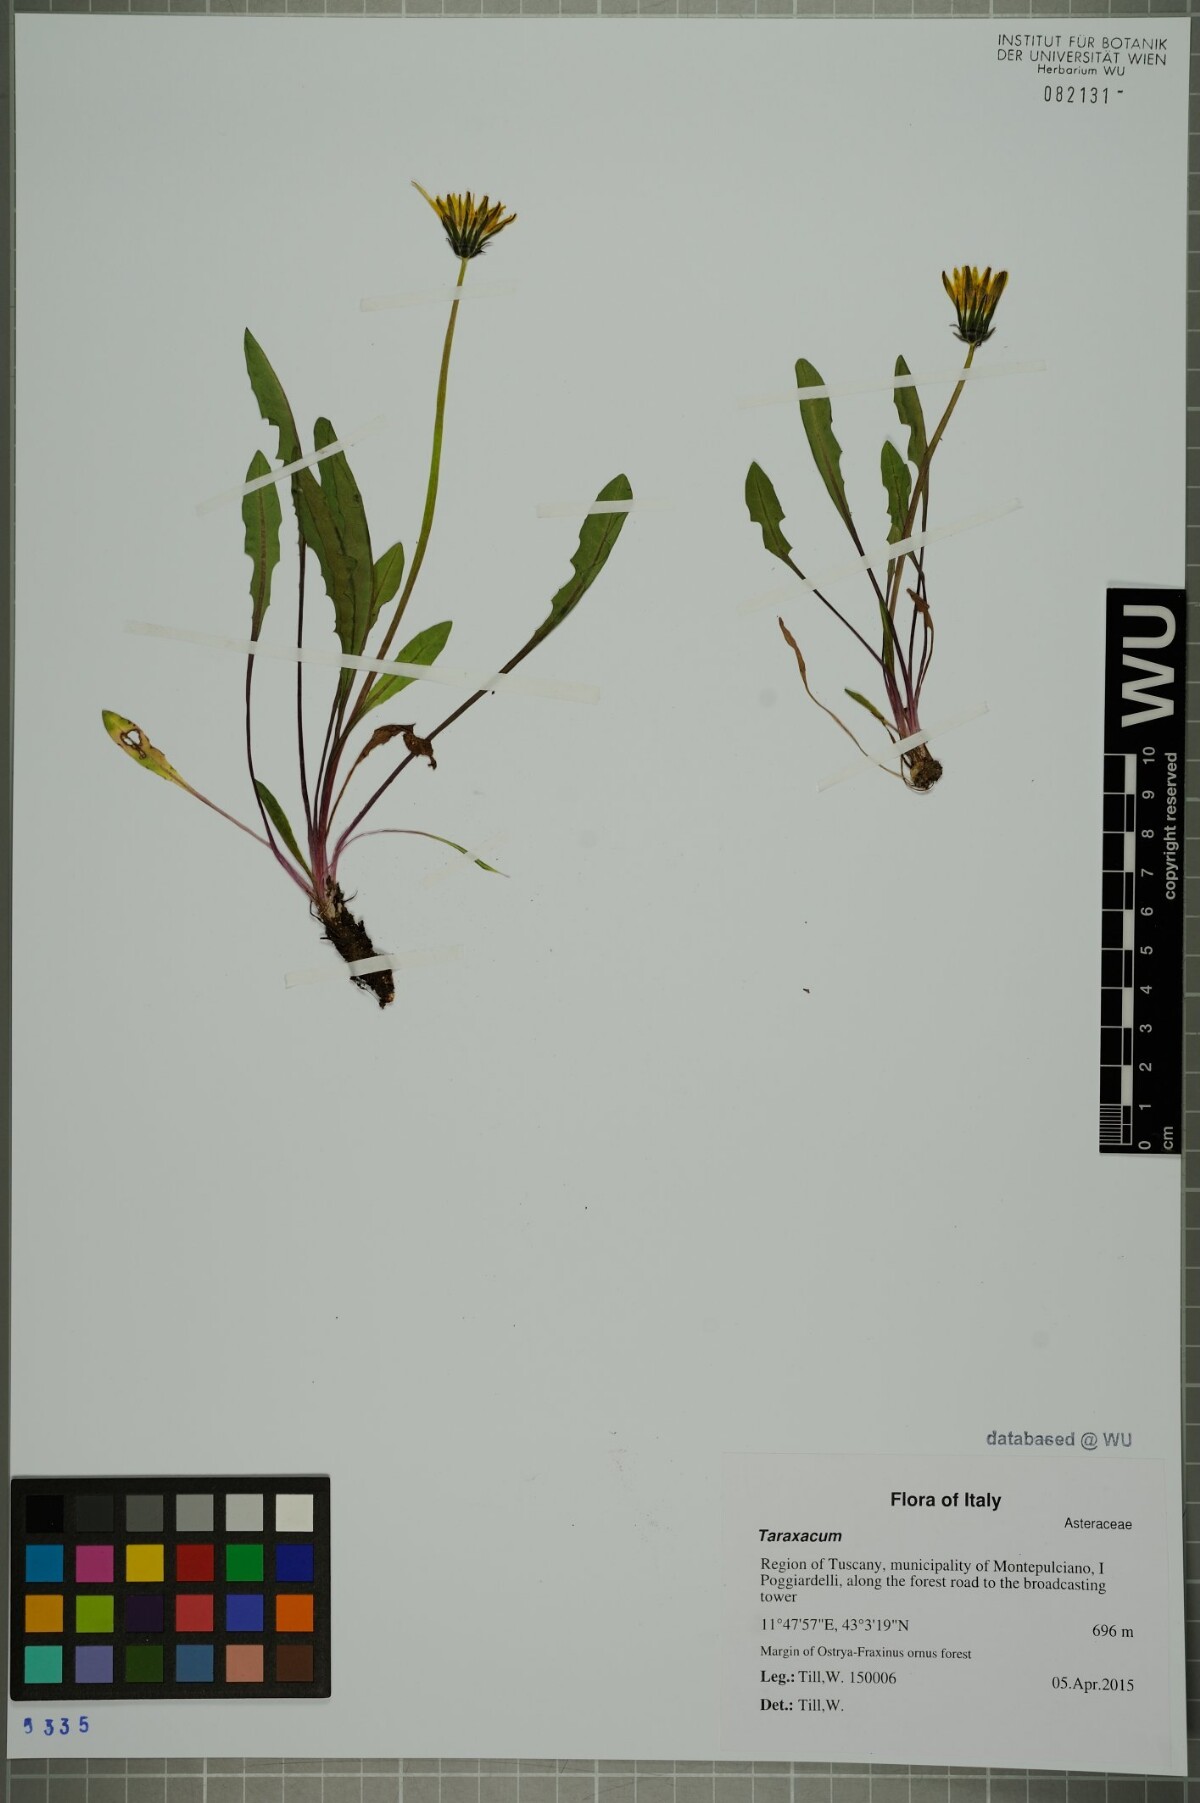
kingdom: Plantae
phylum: Tracheophyta
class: Magnoliopsida
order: Asterales
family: Asteraceae
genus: Taraxacum
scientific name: Taraxacum
